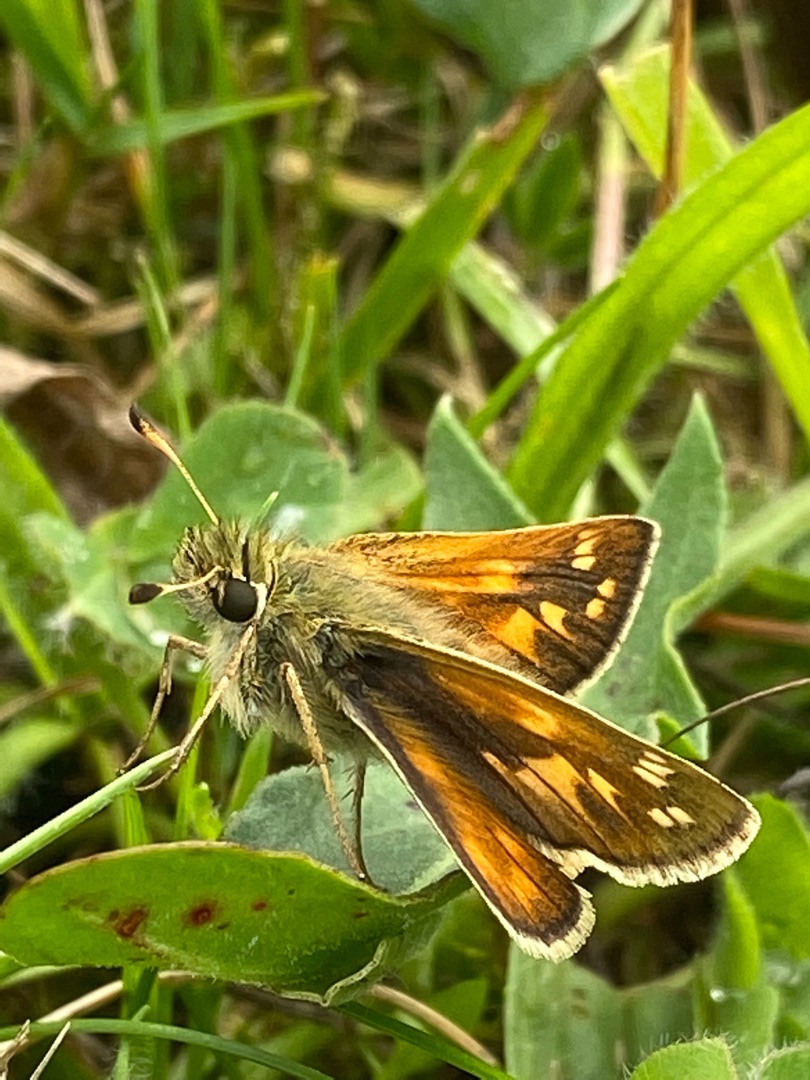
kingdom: Animalia
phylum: Arthropoda
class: Insecta
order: Lepidoptera
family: Hesperiidae
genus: Hesperia
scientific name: Hesperia comma
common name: Kommabredpande
